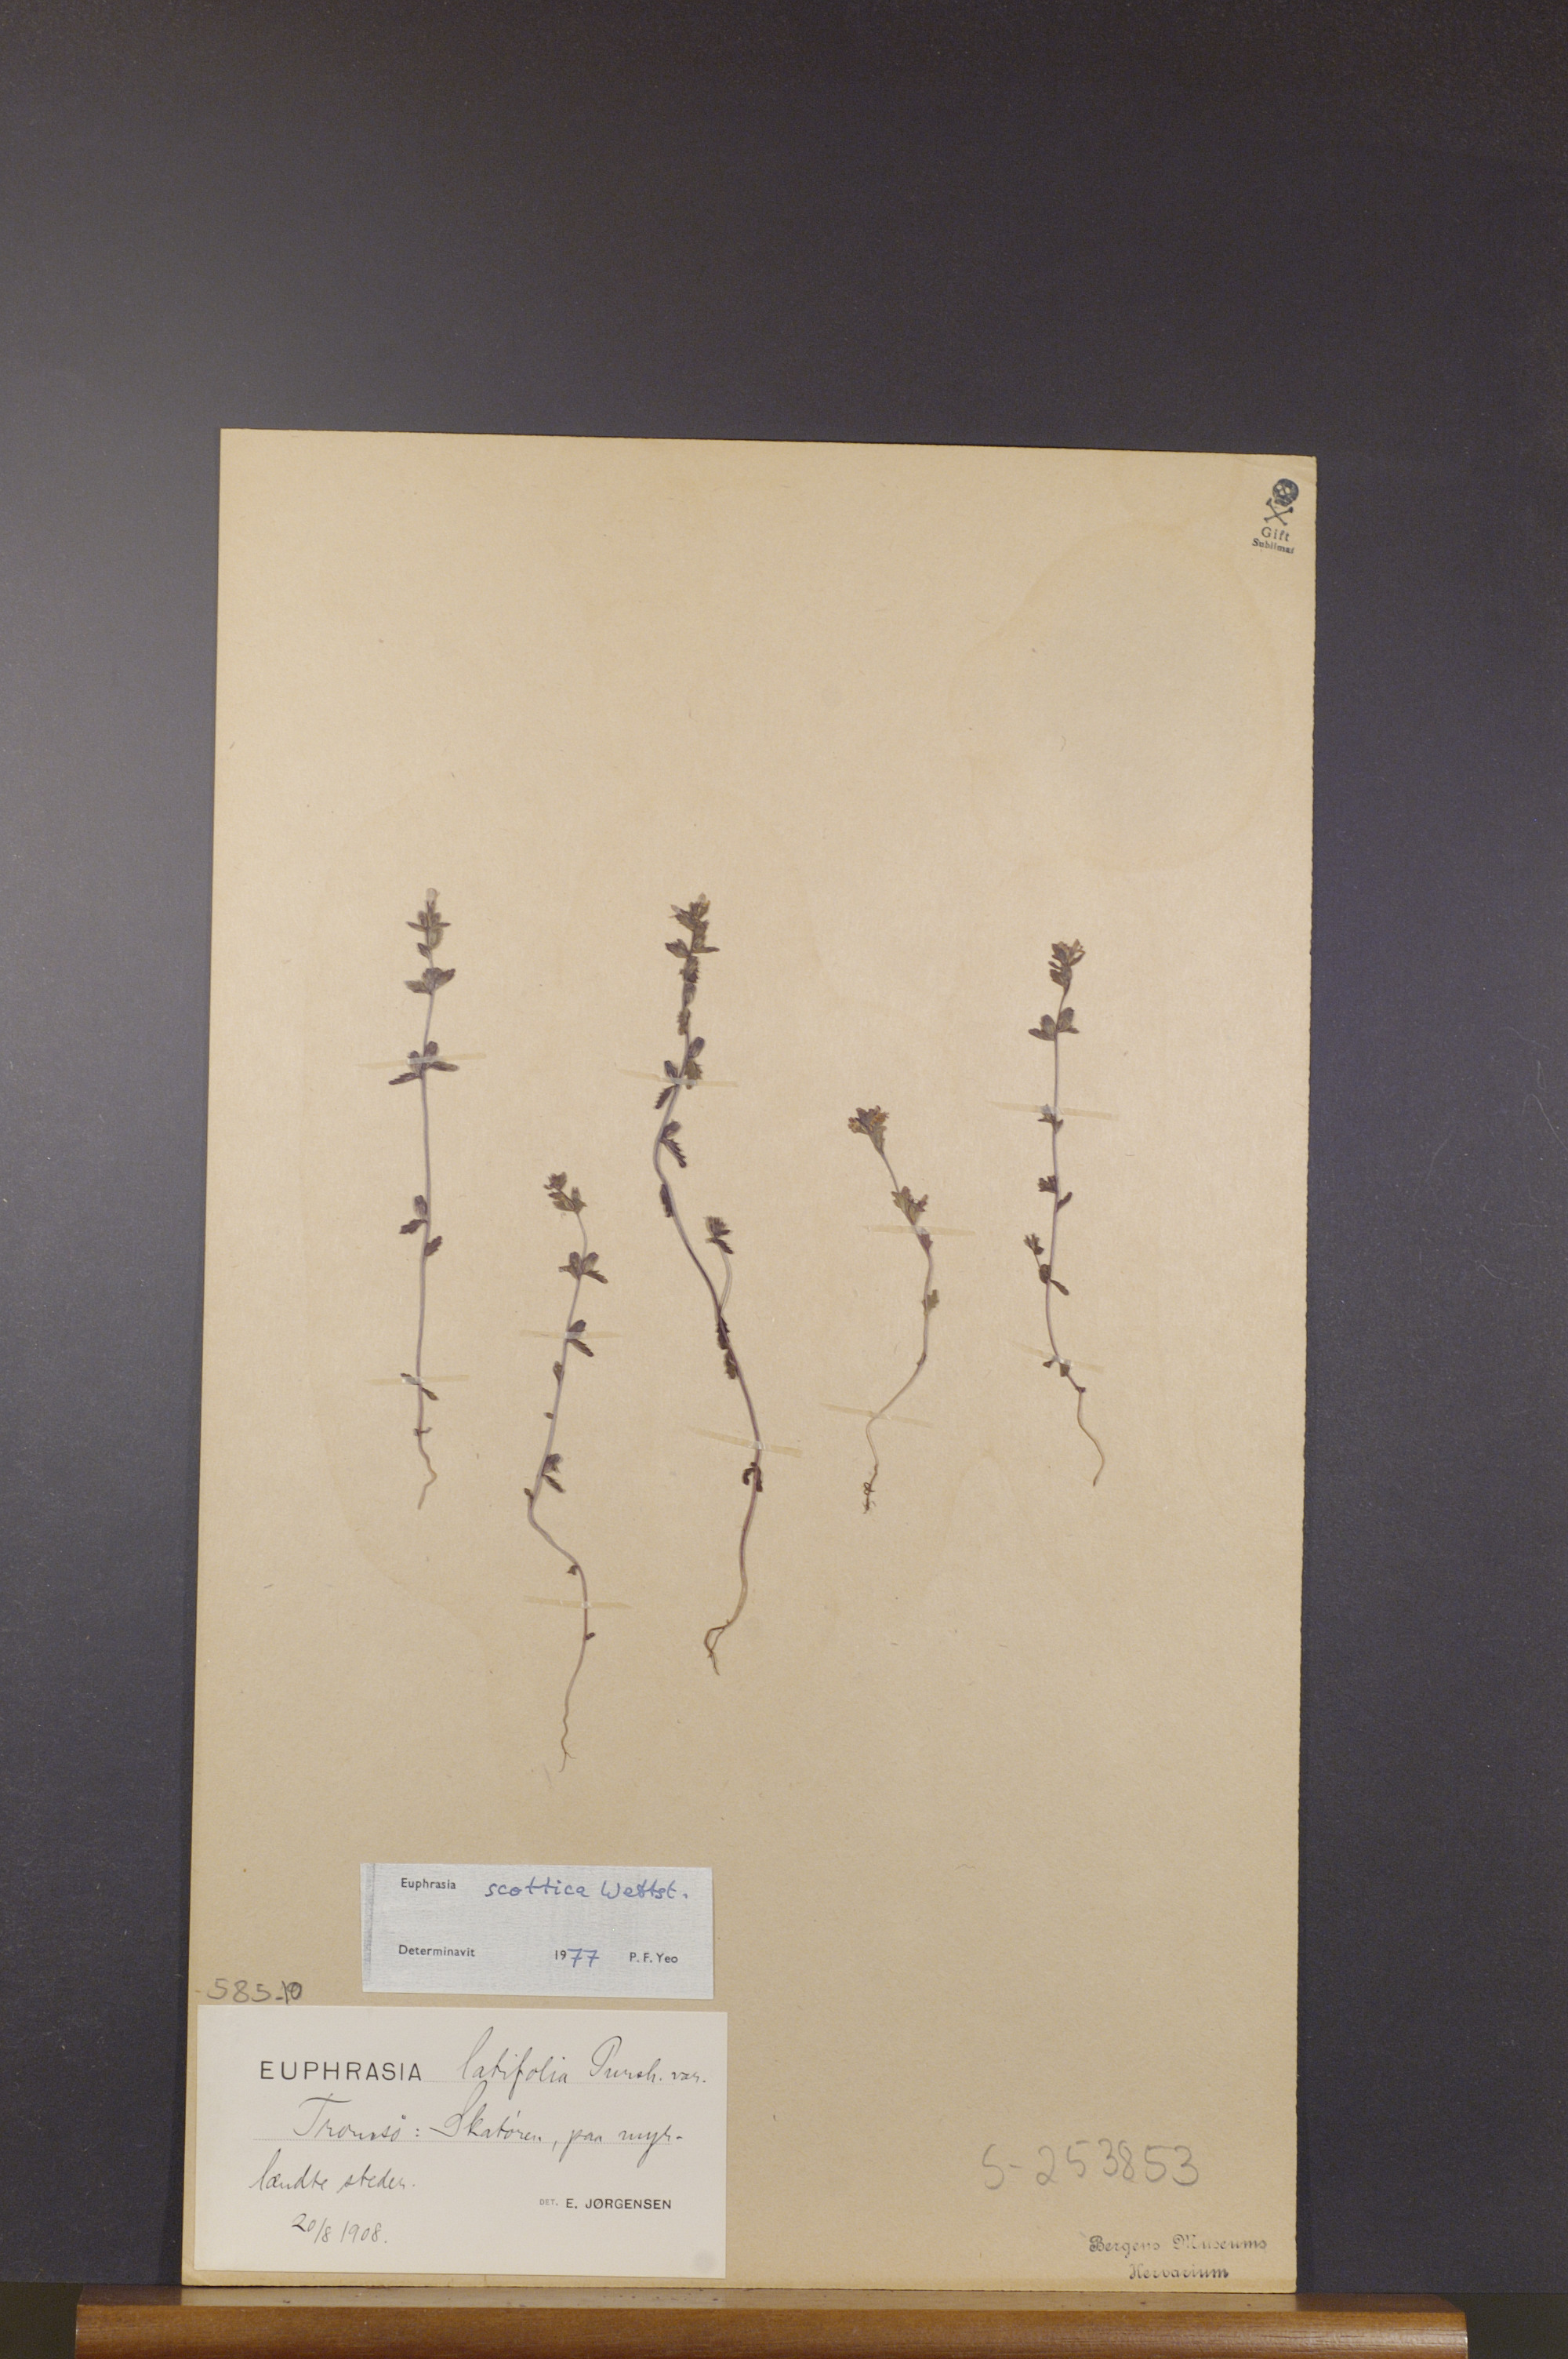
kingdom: Plantae
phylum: Tracheophyta
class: Magnoliopsida
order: Lamiales
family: Orobanchaceae
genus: Euphrasia
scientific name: Euphrasia scottica
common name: Slender scottish eyebright
